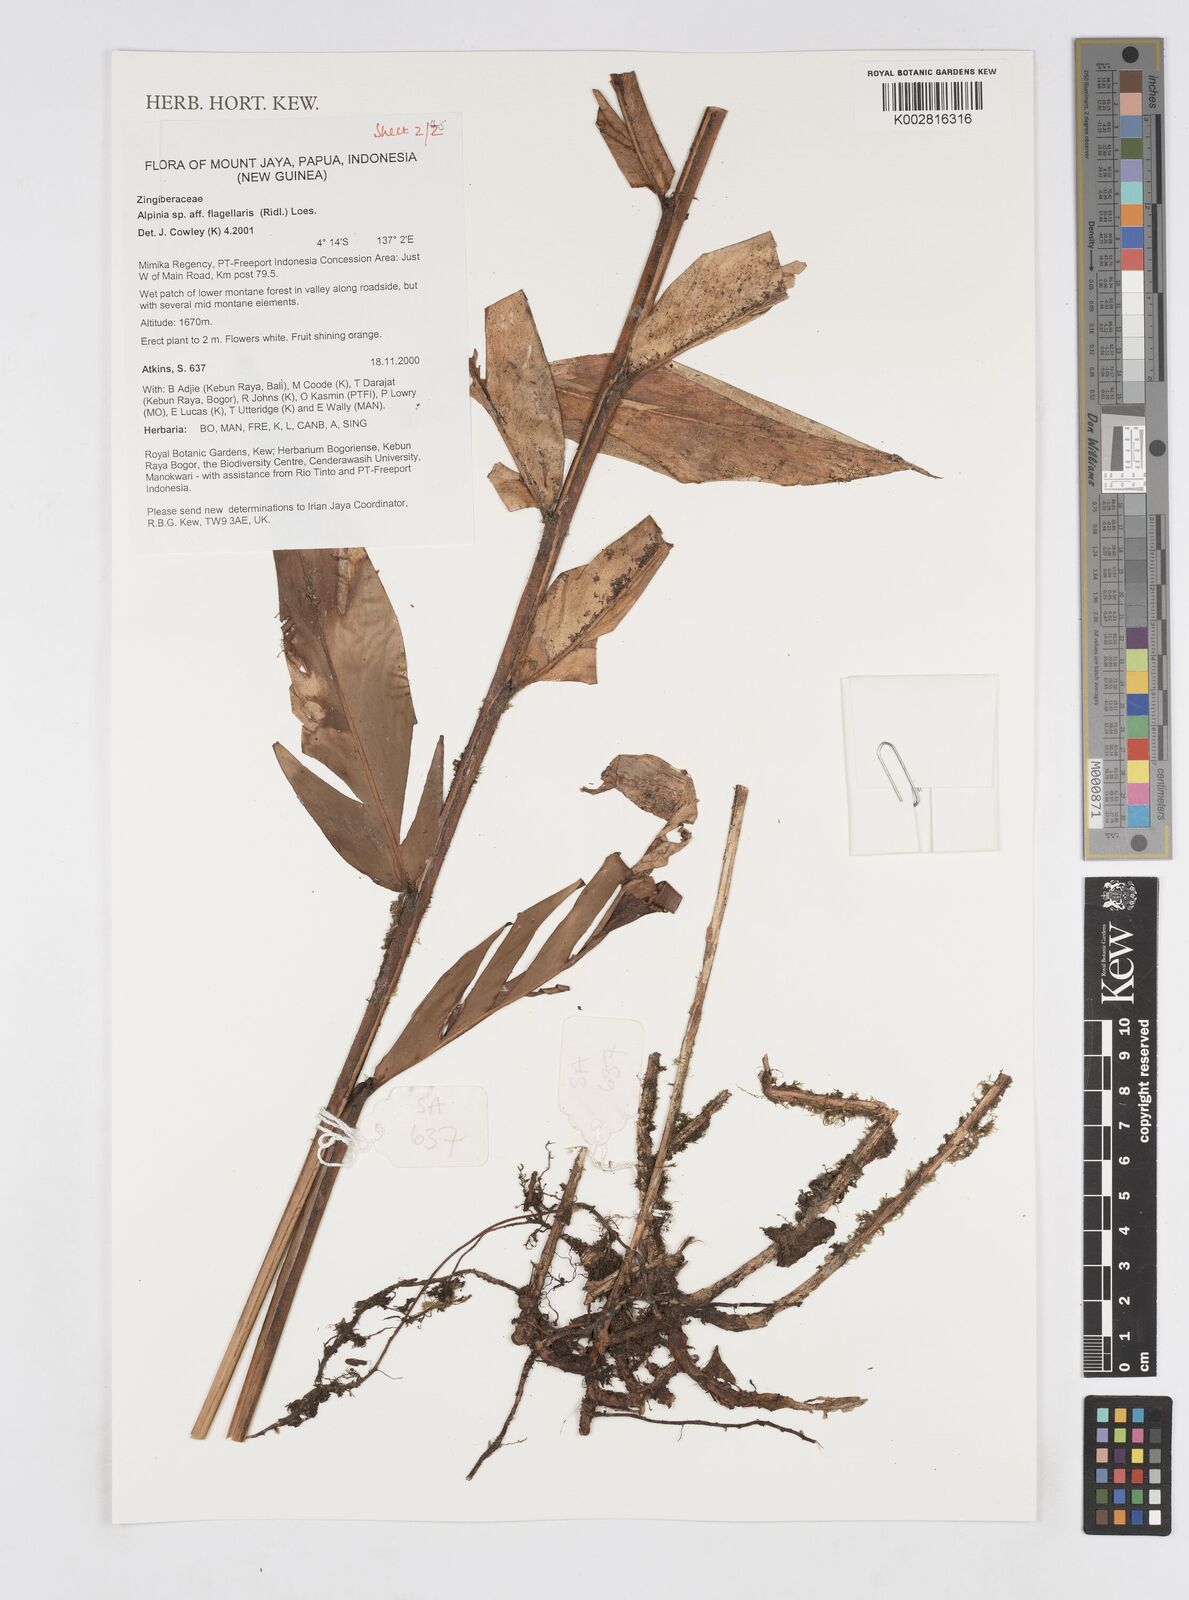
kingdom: Plantae
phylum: Tracheophyta
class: Liliopsida
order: Zingiberales
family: Zingiberaceae
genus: Alpinia
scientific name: Alpinia flagellaris
